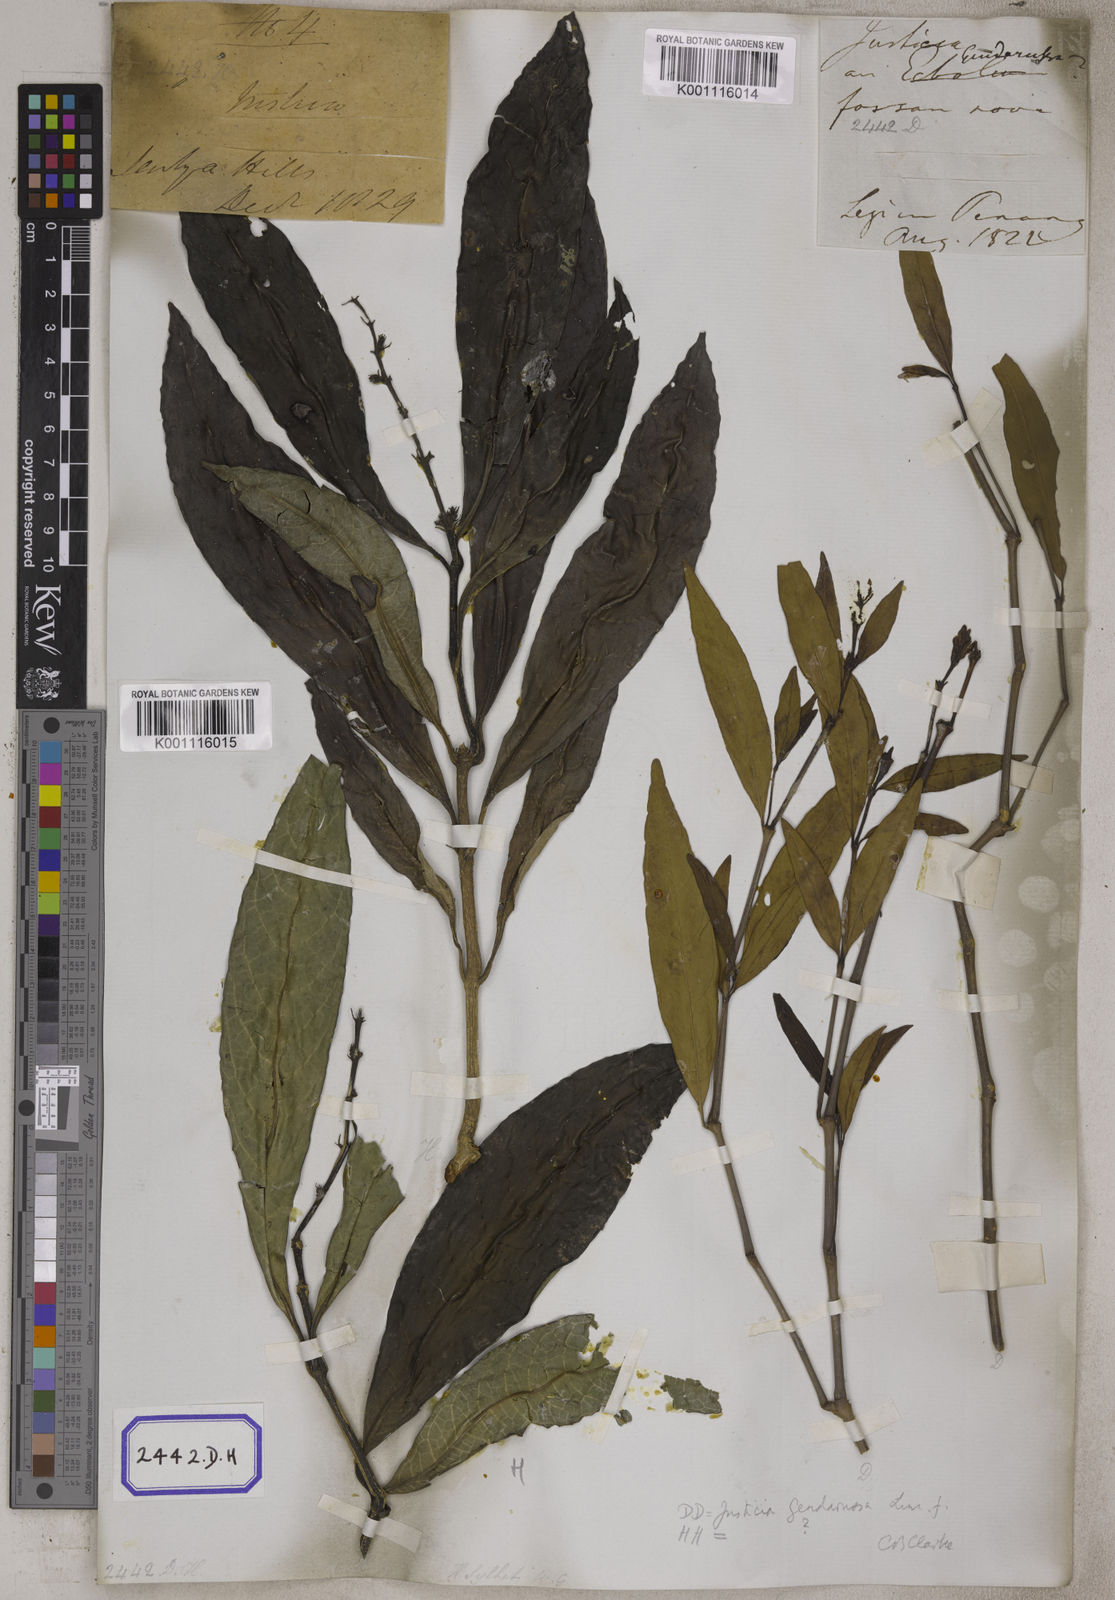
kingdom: Plantae
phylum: Tracheophyta
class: Magnoliopsida
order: Lamiales
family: Acanthaceae
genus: Justicia
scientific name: Justicia
